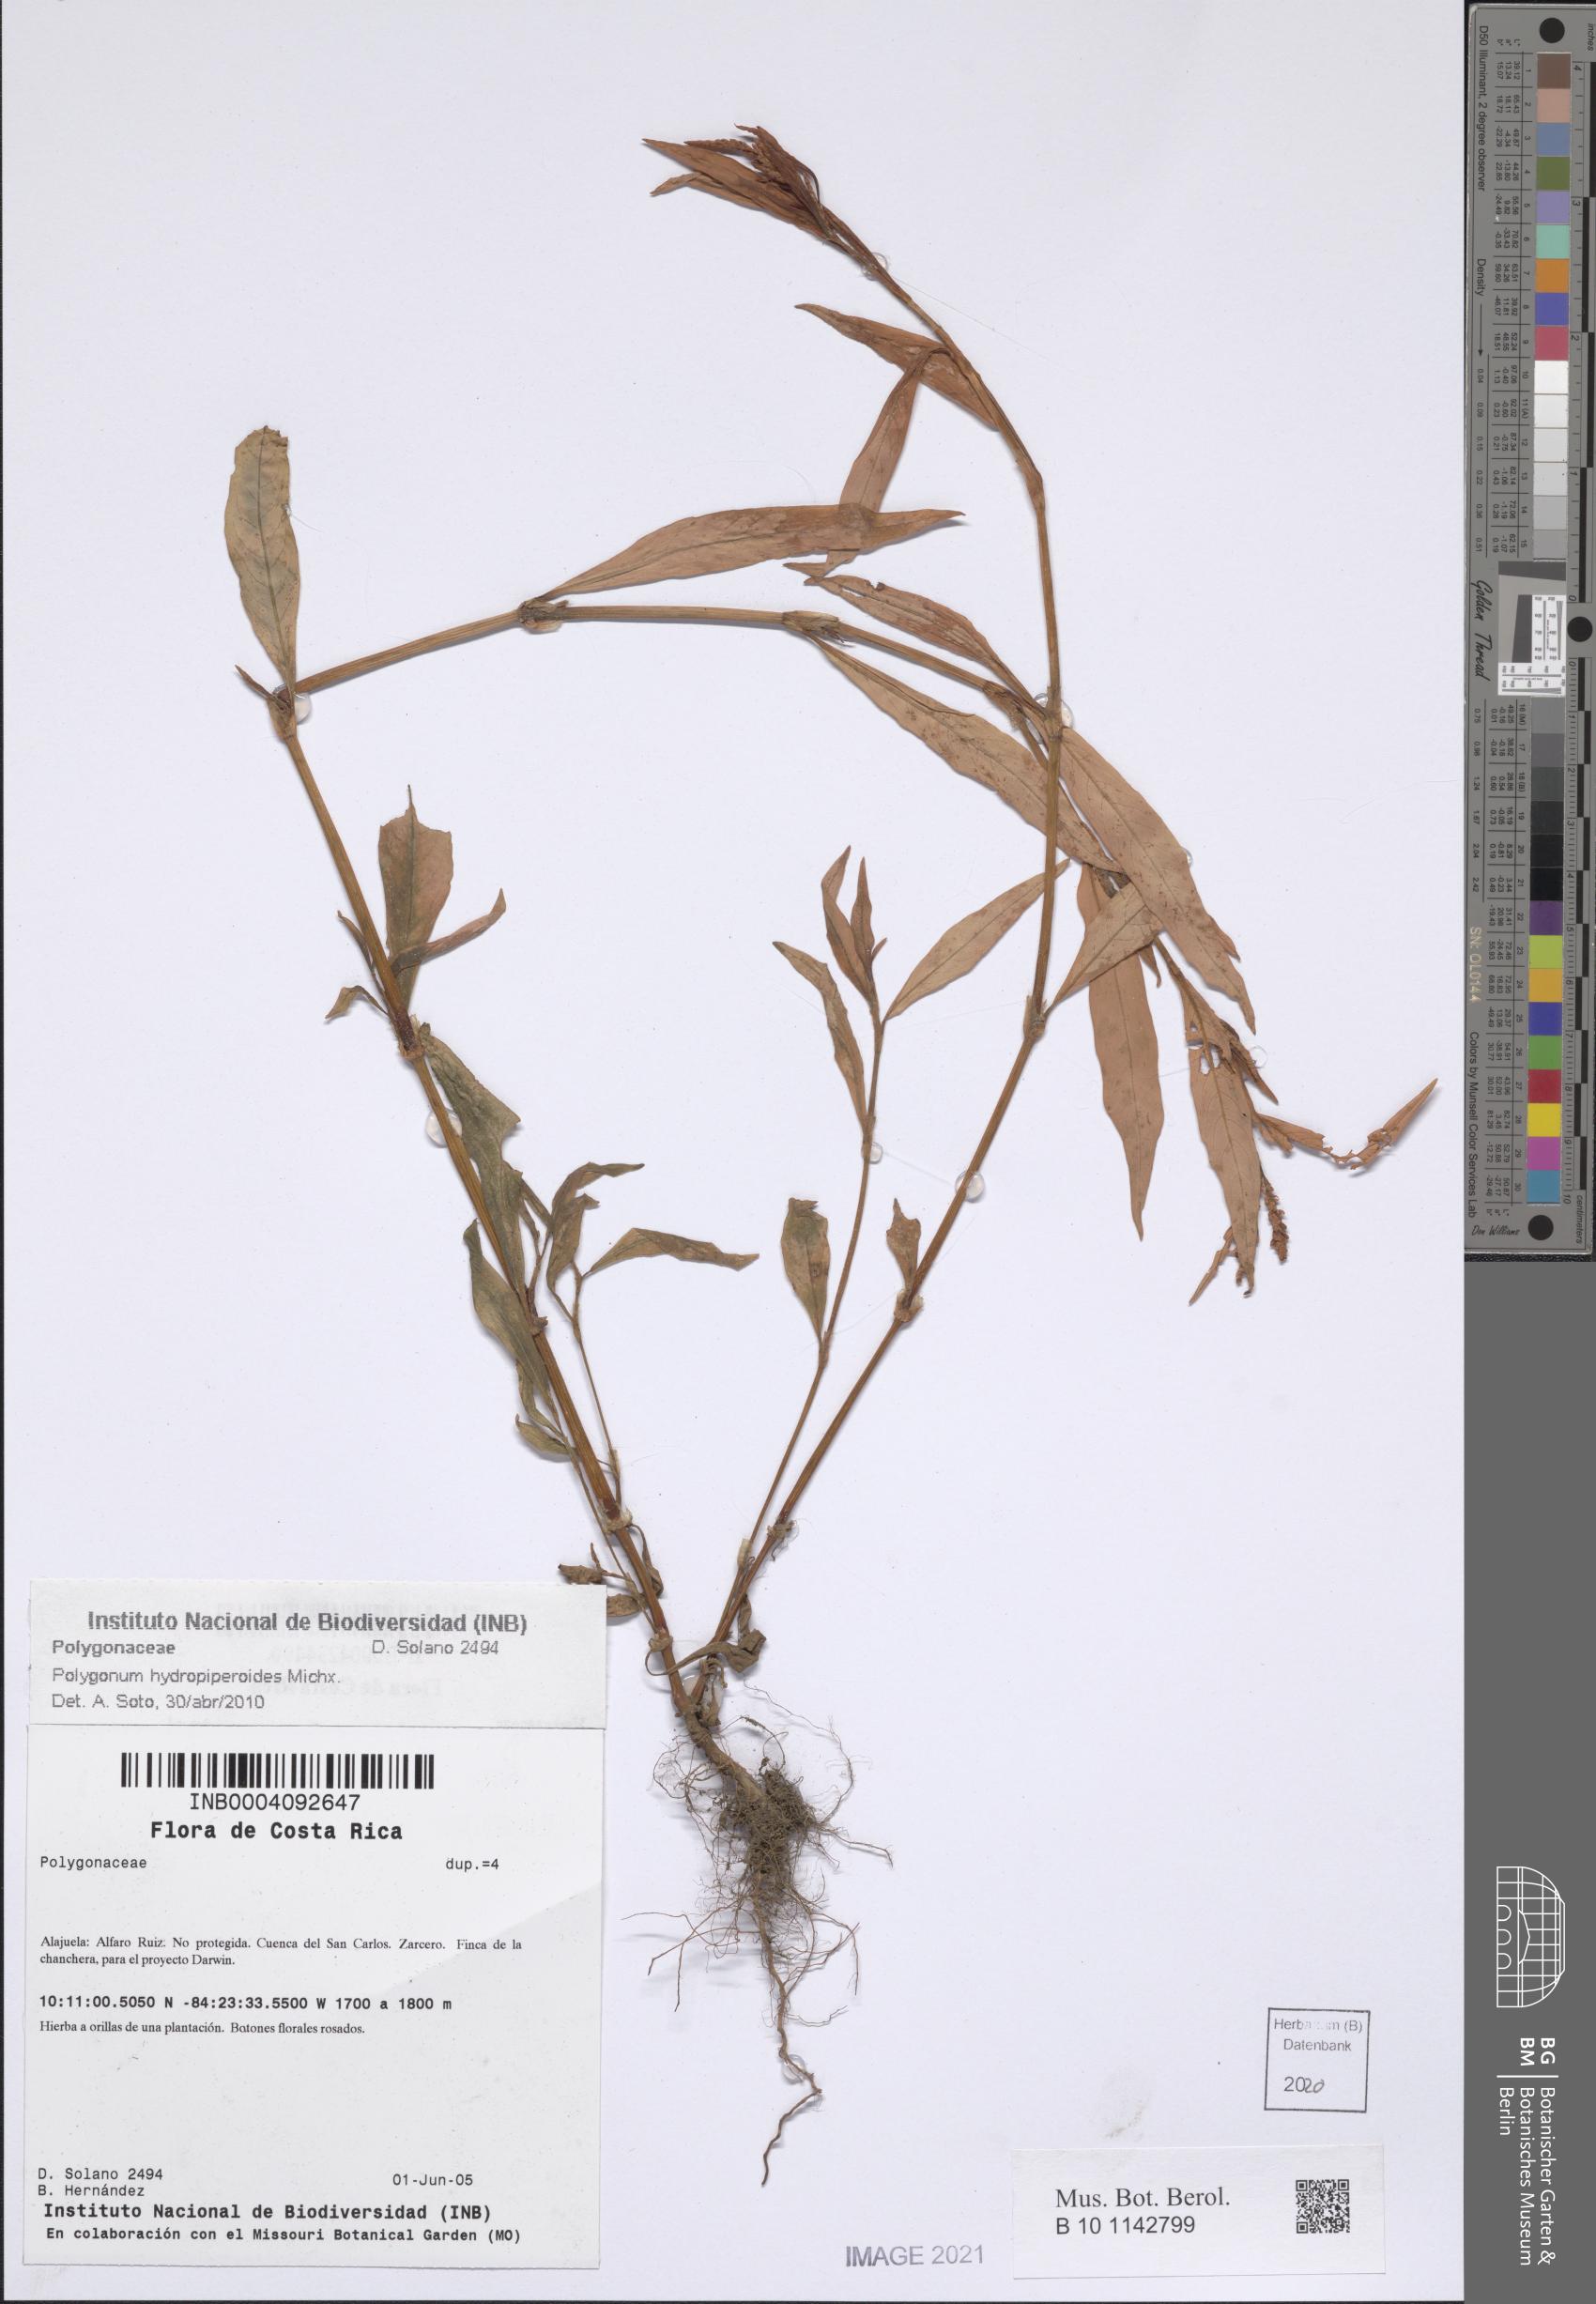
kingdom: Plantae
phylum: Tracheophyta
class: Magnoliopsida
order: Caryophyllales
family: Polygonaceae
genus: Persicaria
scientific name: Persicaria hydropiperoides
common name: Swamp smartweed
